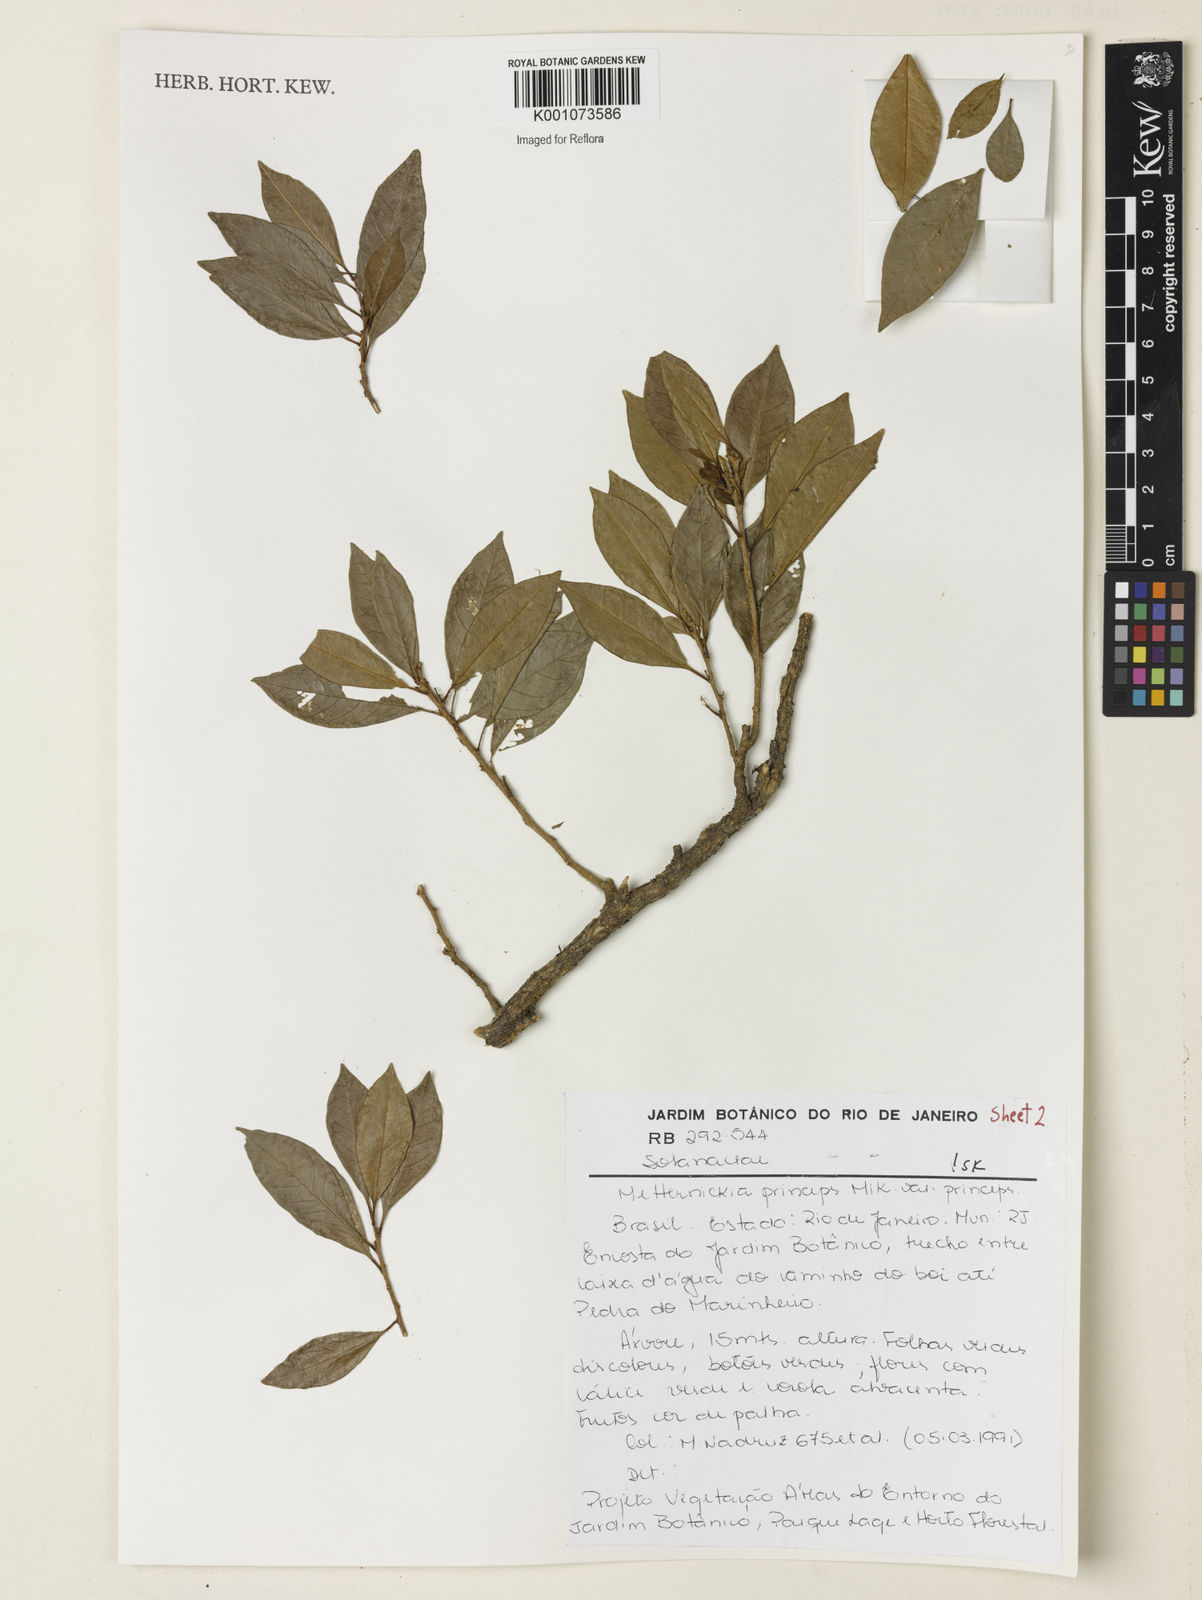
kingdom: Plantae
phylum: Tracheophyta
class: Magnoliopsida
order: Solanales
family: Solanaceae
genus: Metternichia
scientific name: Metternichia
